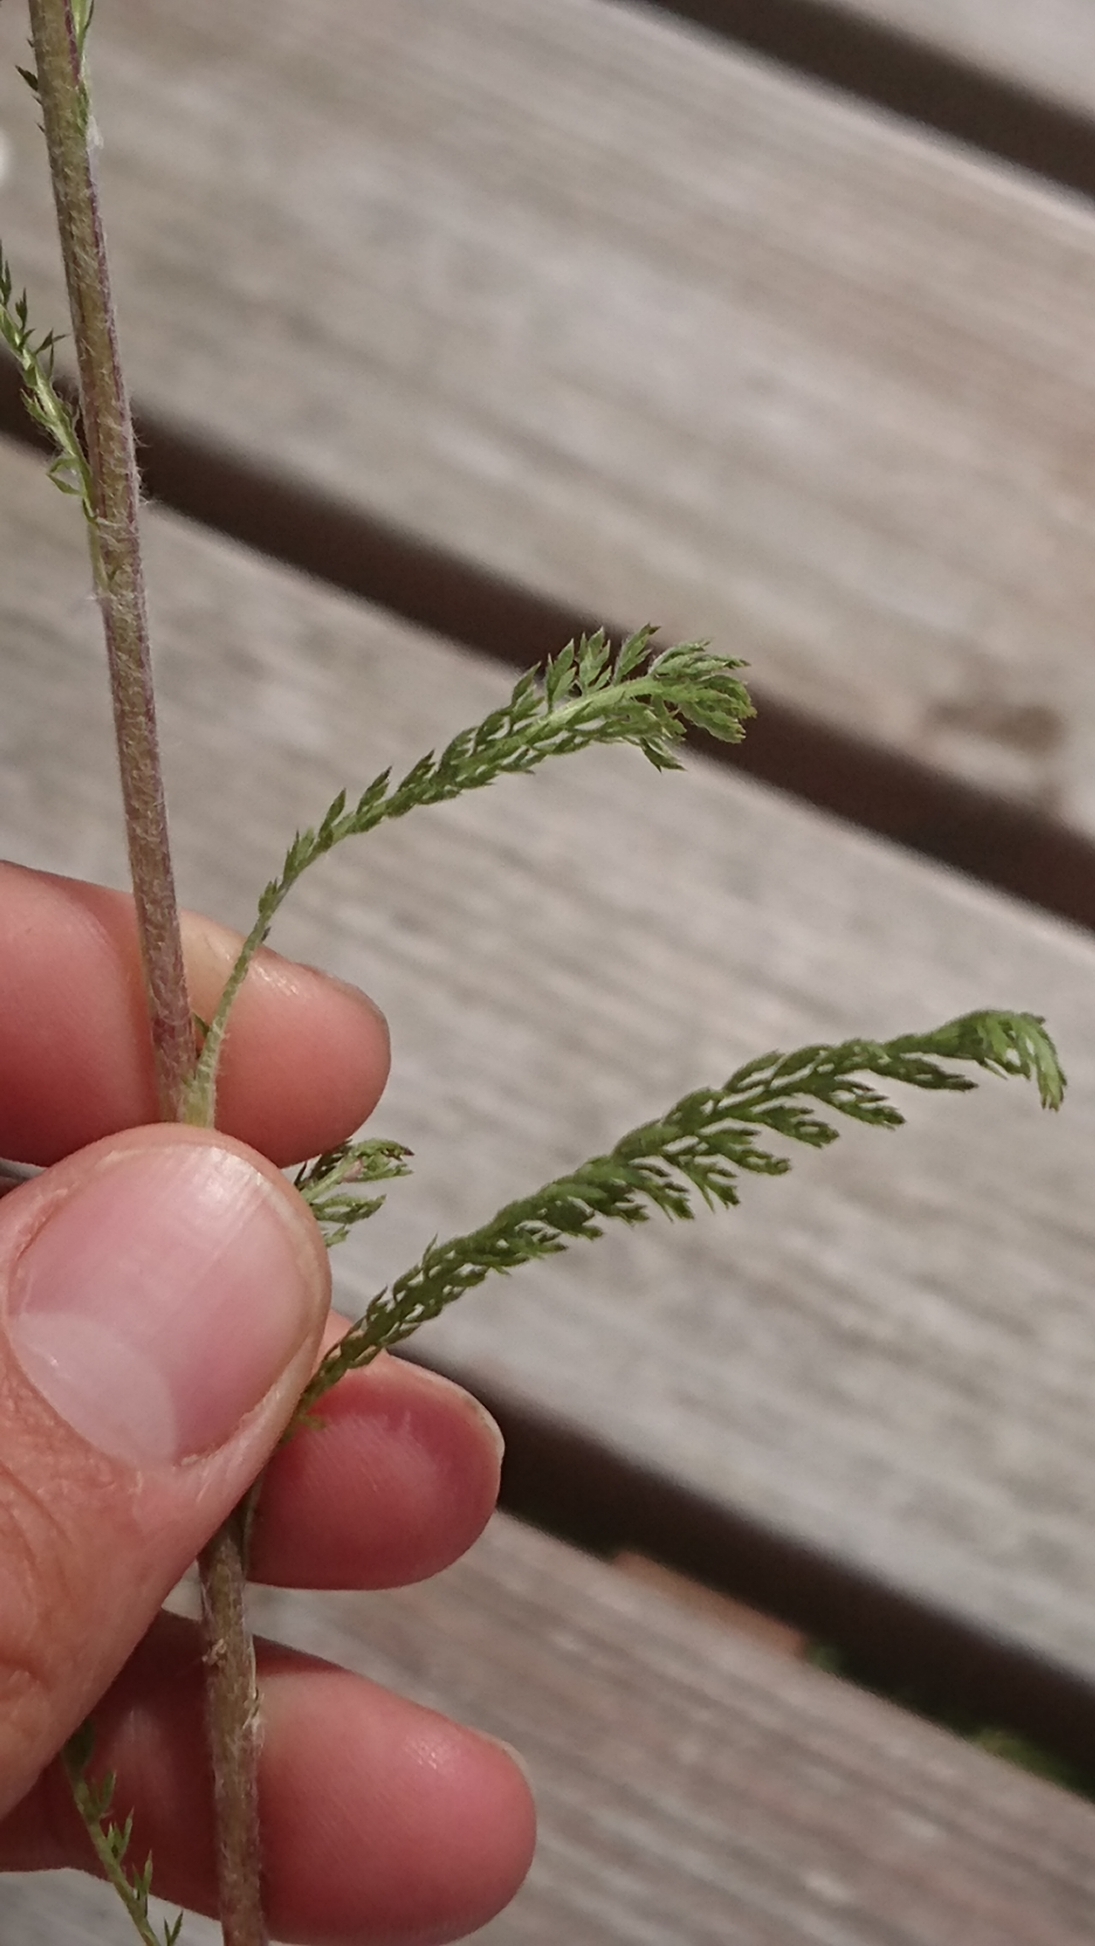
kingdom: Plantae
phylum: Tracheophyta
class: Magnoliopsida
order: Asterales
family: Asteraceae
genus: Achillea
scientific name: Achillea millefolium
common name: Almindelig røllike
